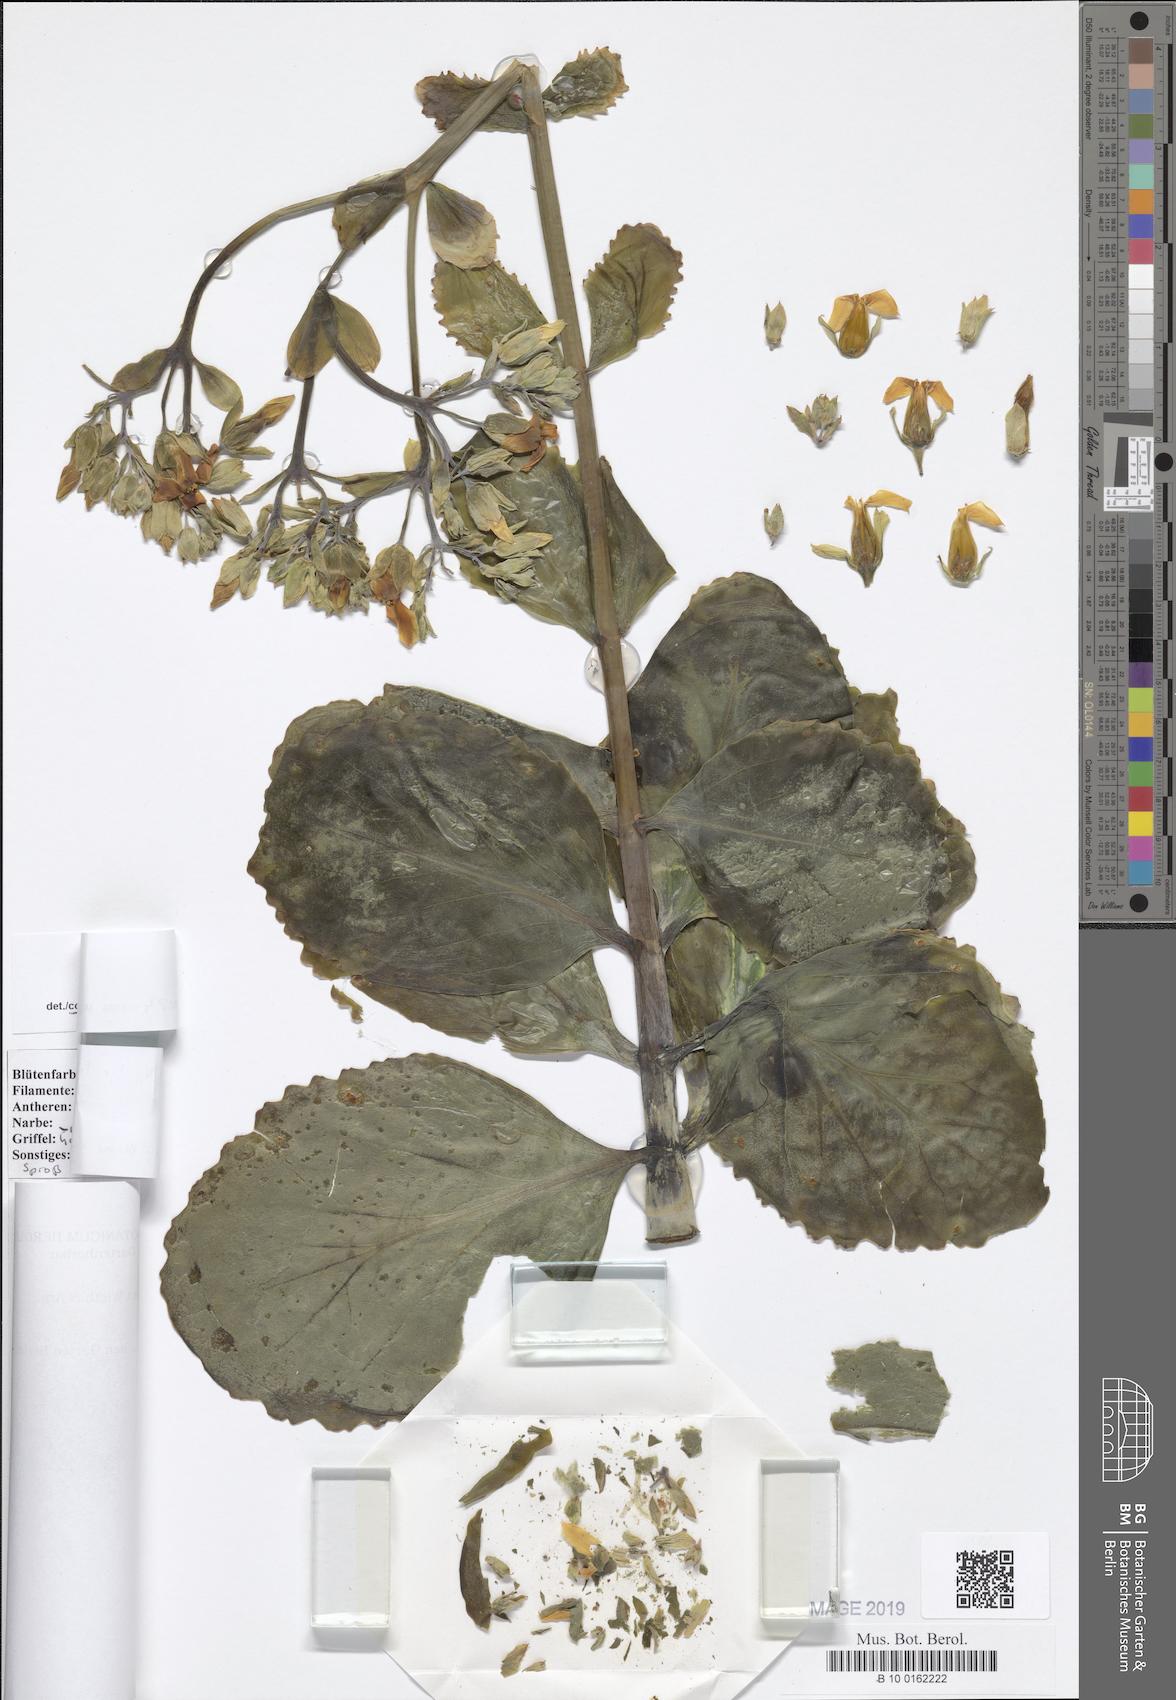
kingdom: Plantae
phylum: Tracheophyta
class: Magnoliopsida
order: Saxifragales
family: Crassulaceae
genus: Kalanchoe
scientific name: Kalanchoe grandiflora
